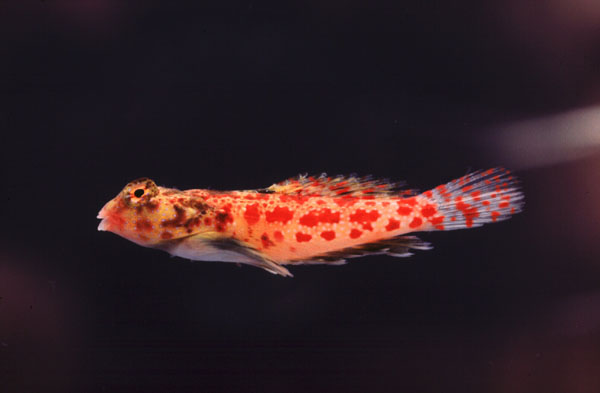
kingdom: Animalia
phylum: Chordata
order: Perciformes
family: Callionymidae
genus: Synchiropus
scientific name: Synchiropus stellatus
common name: Starry dragonet
